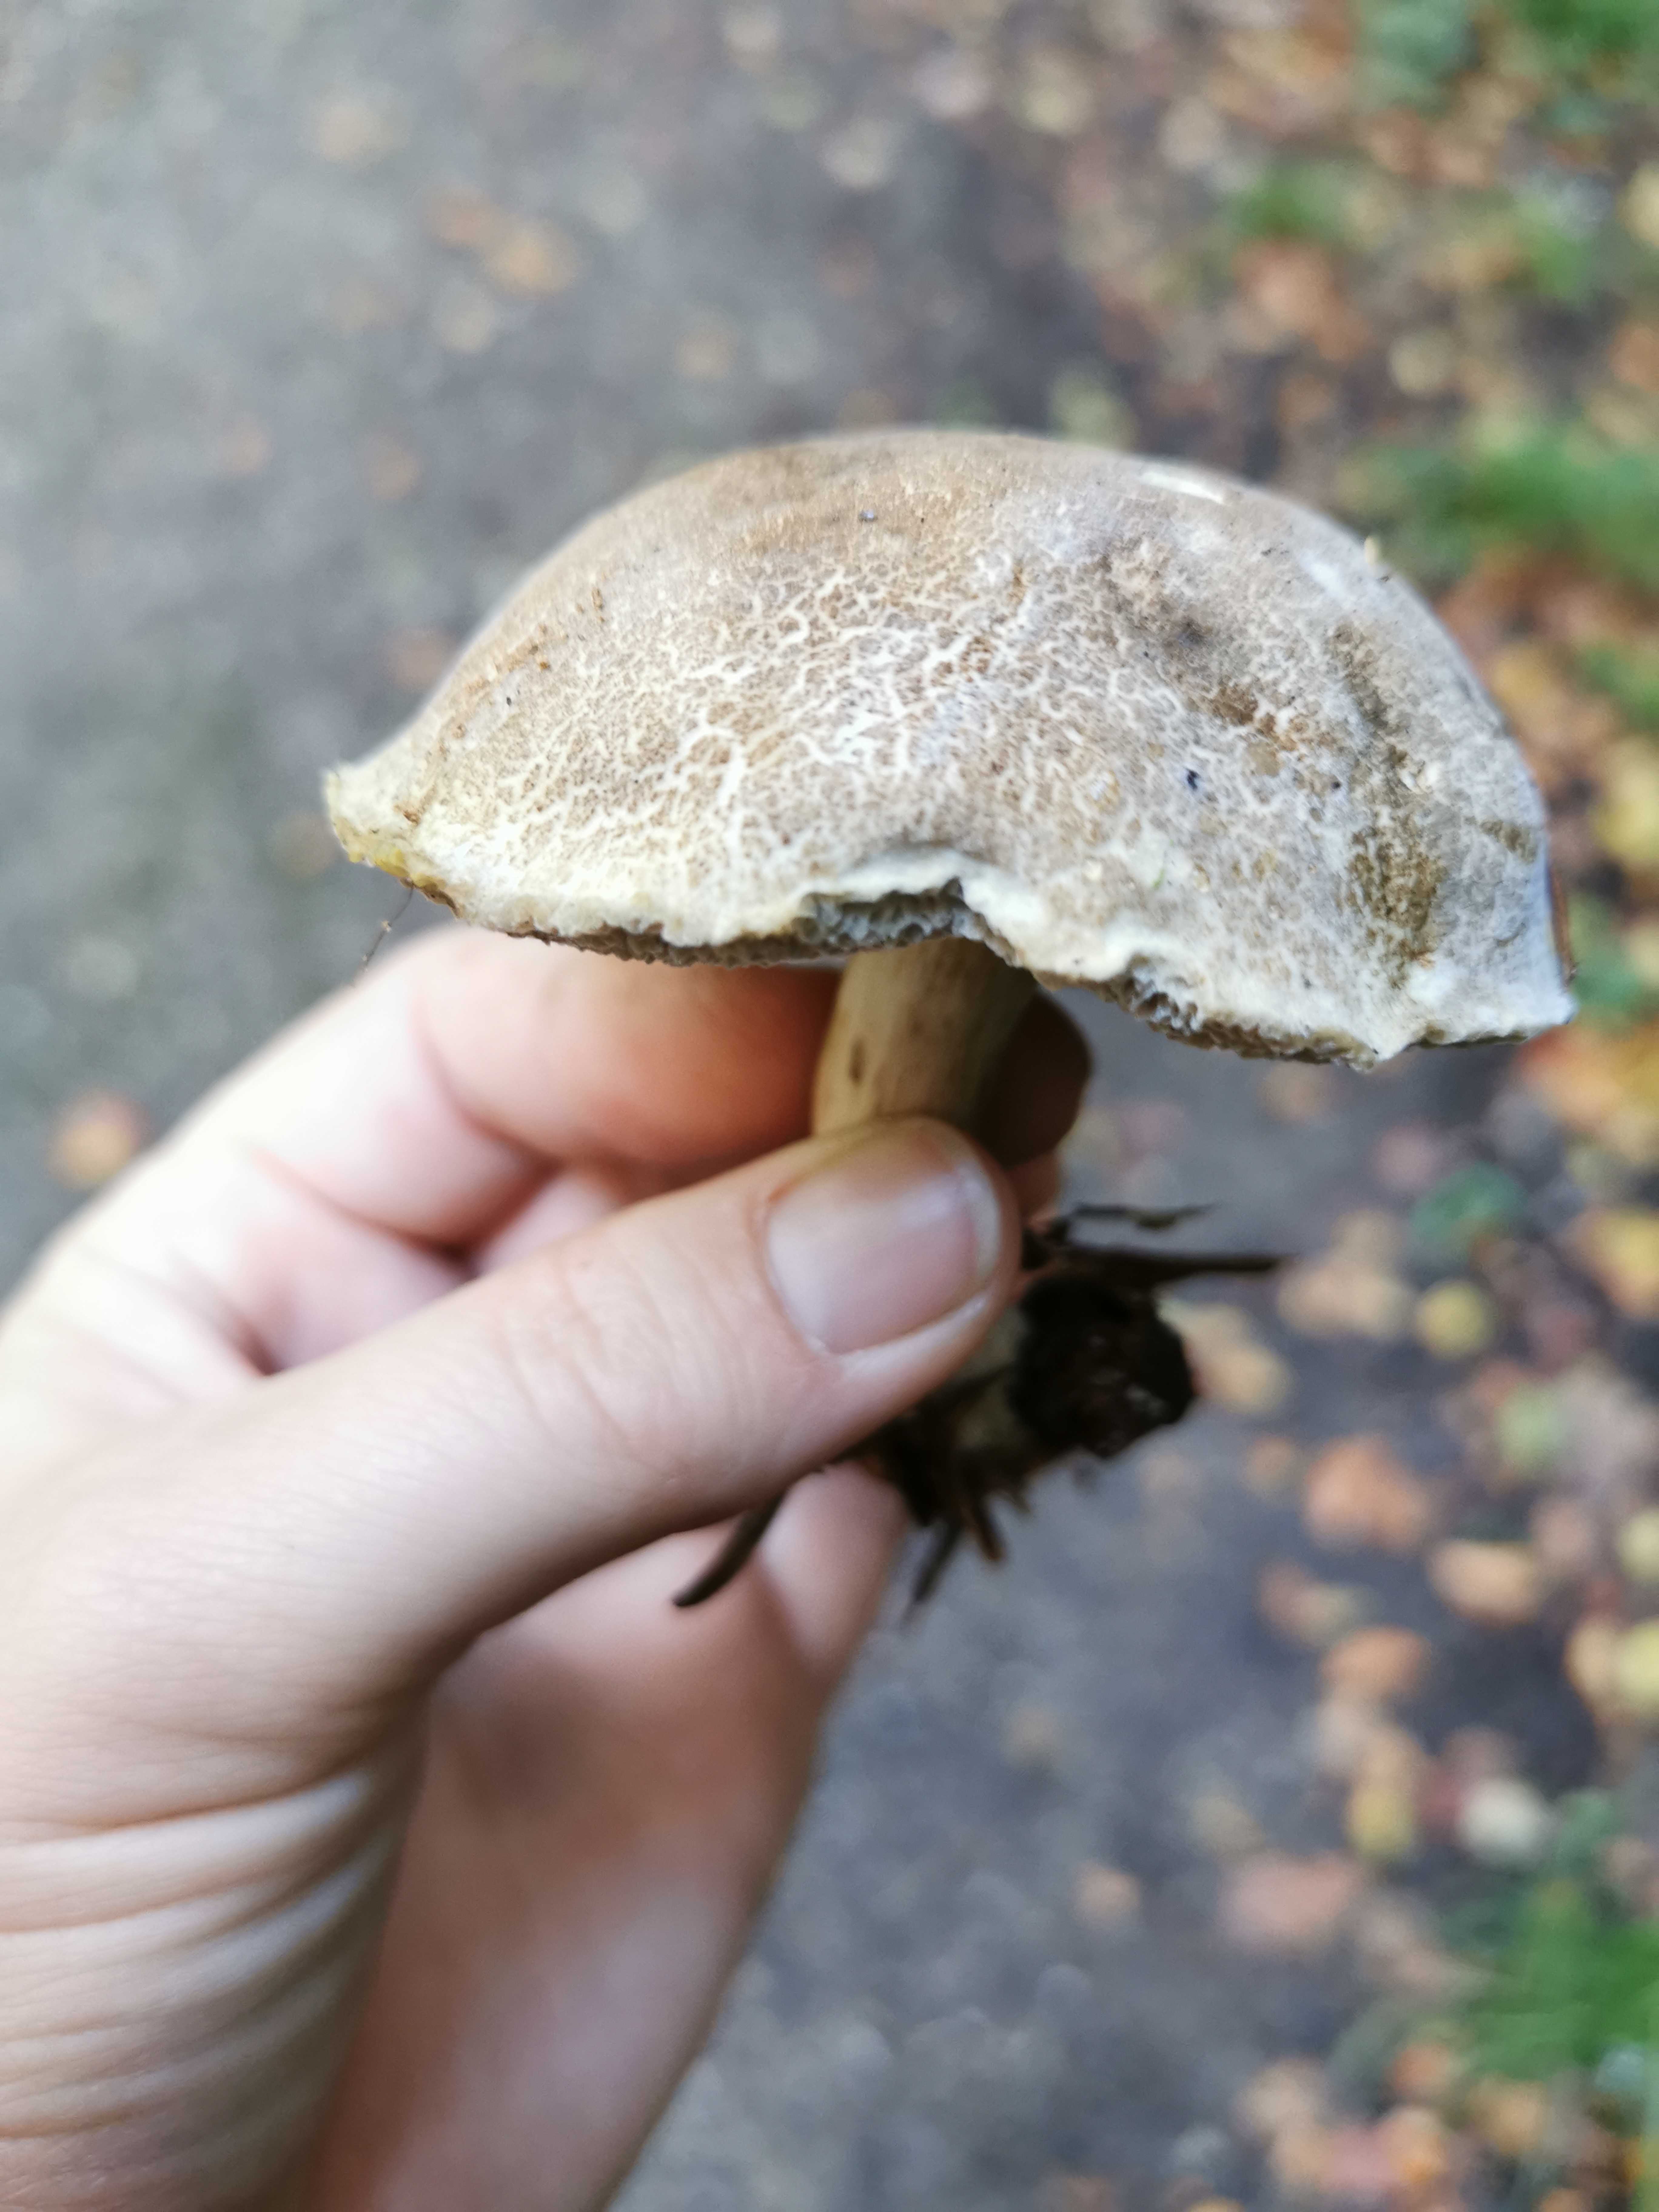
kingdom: Fungi
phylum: Basidiomycota
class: Agaricomycetes
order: Boletales
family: Boletaceae
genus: Xerocomellus
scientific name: Xerocomellus
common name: dværgrørhat
